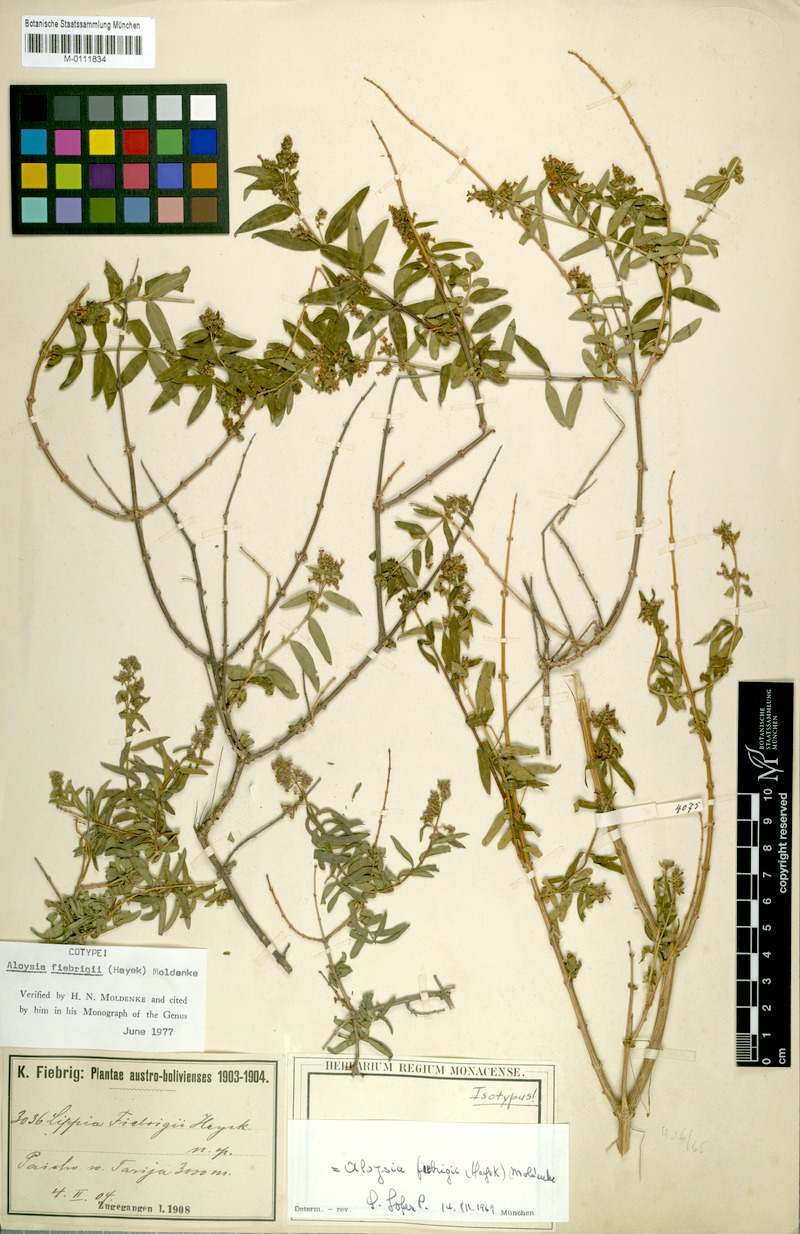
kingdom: Plantae
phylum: Tracheophyta
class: Magnoliopsida
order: Lamiales
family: Verbenaceae
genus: Aloysia
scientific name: Aloysia fiebrigii
